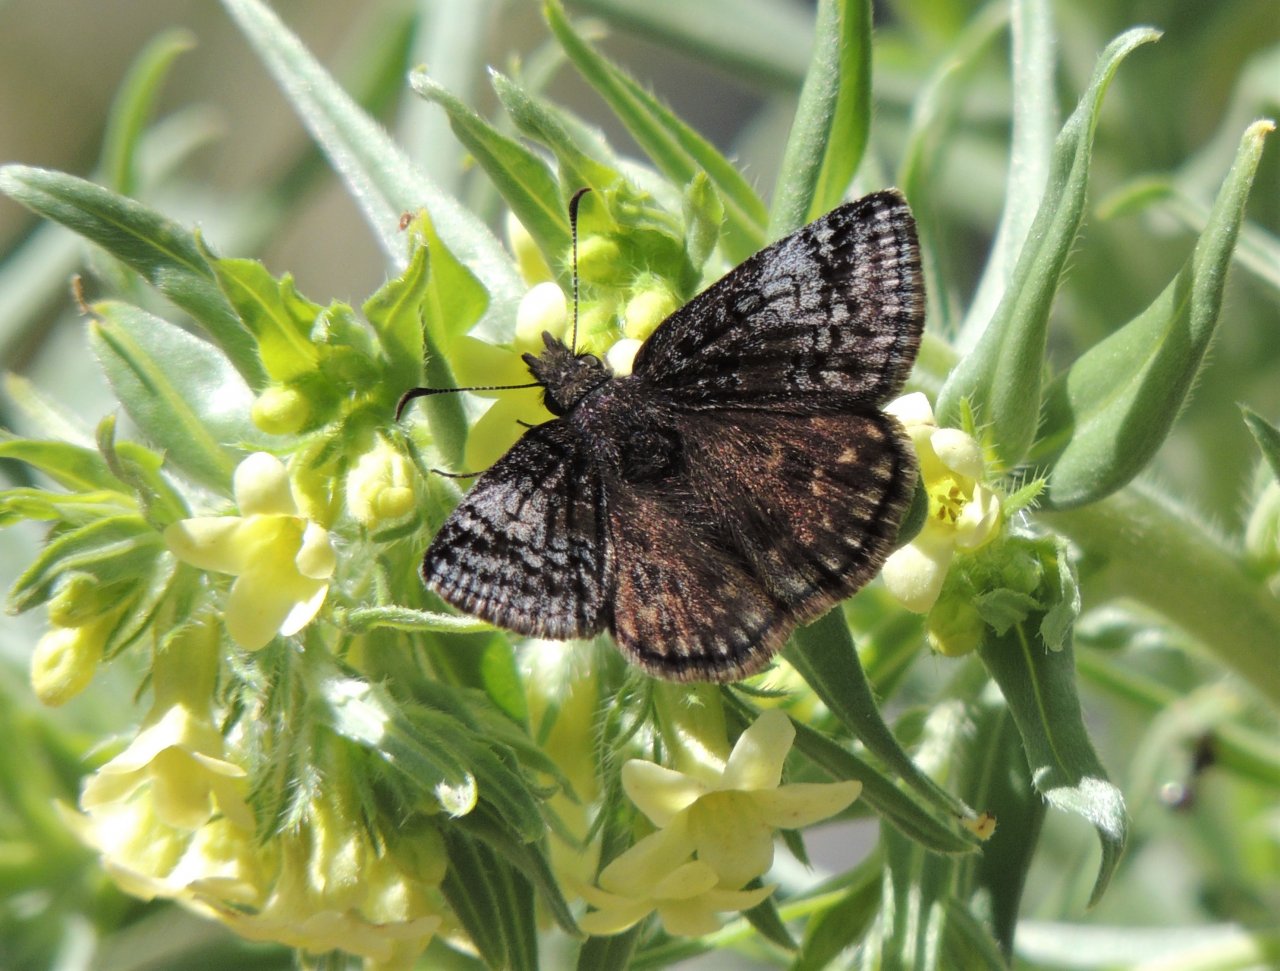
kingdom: Animalia
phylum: Arthropoda
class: Insecta
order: Lepidoptera
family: Hesperiidae
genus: Erynnis
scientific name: Erynnis icelus
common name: Dreamy Duskywing
